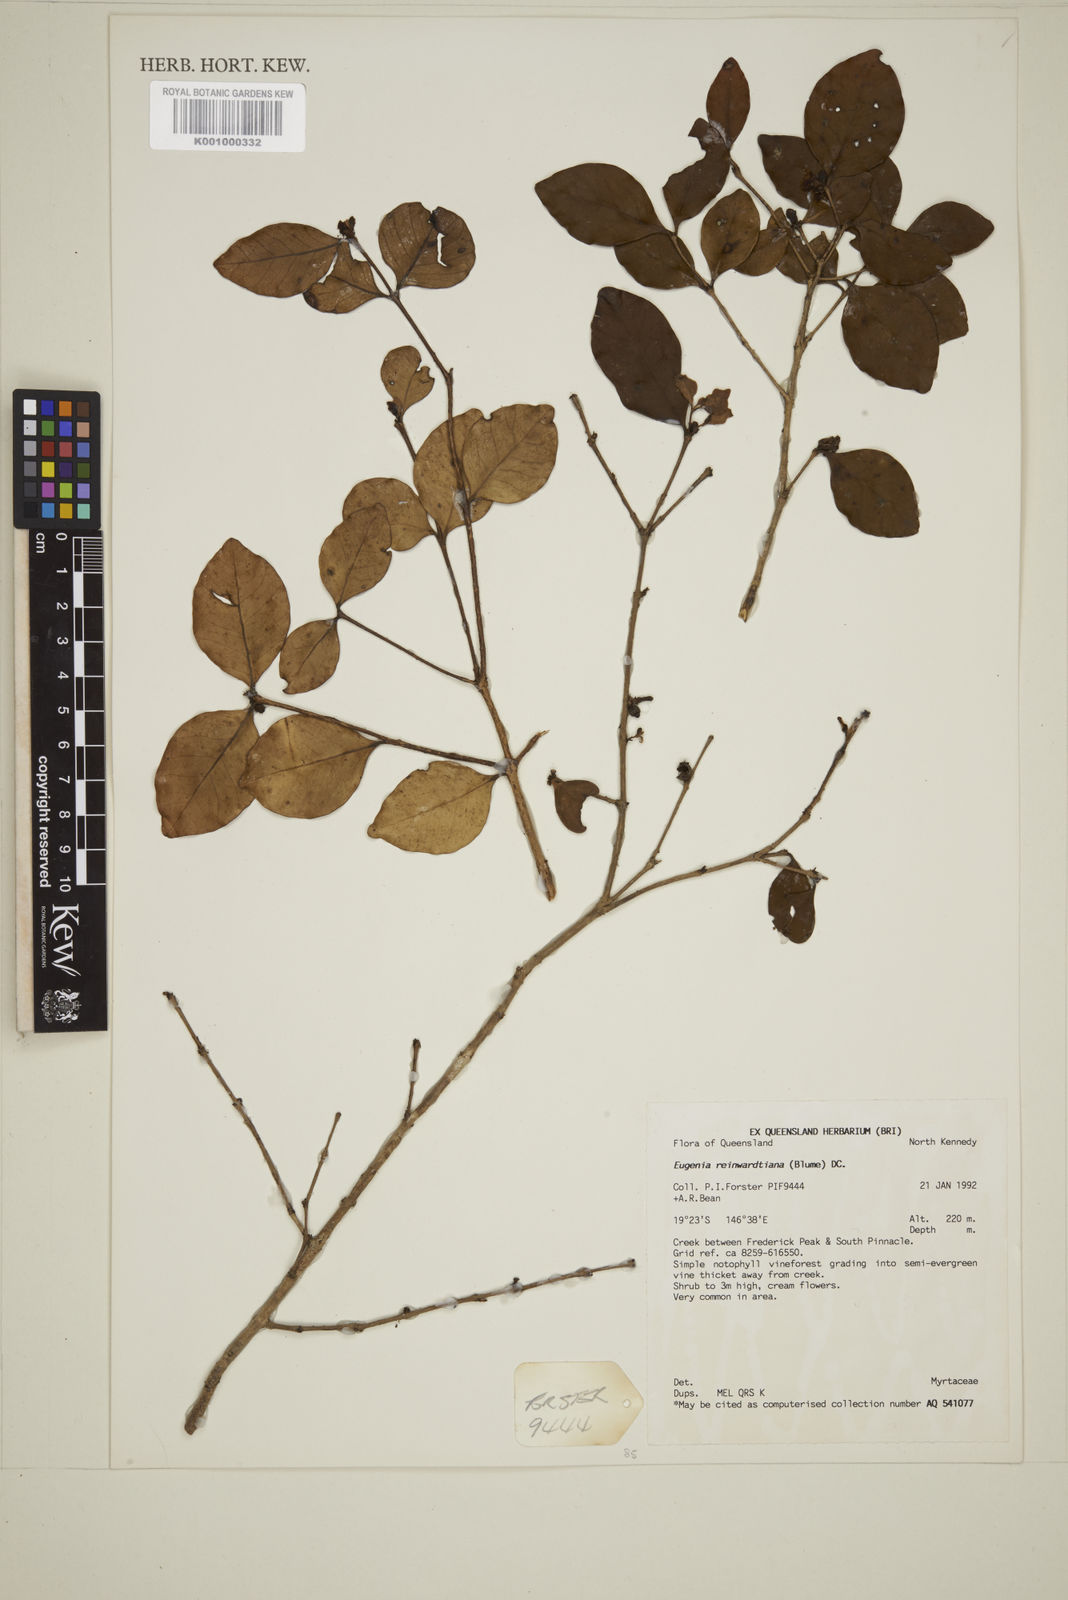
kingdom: Plantae
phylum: Tracheophyta
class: Magnoliopsida
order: Myrtales
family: Myrtaceae
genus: Eugenia
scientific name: Eugenia reinwardtiana
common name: Cedar bay-cherry
